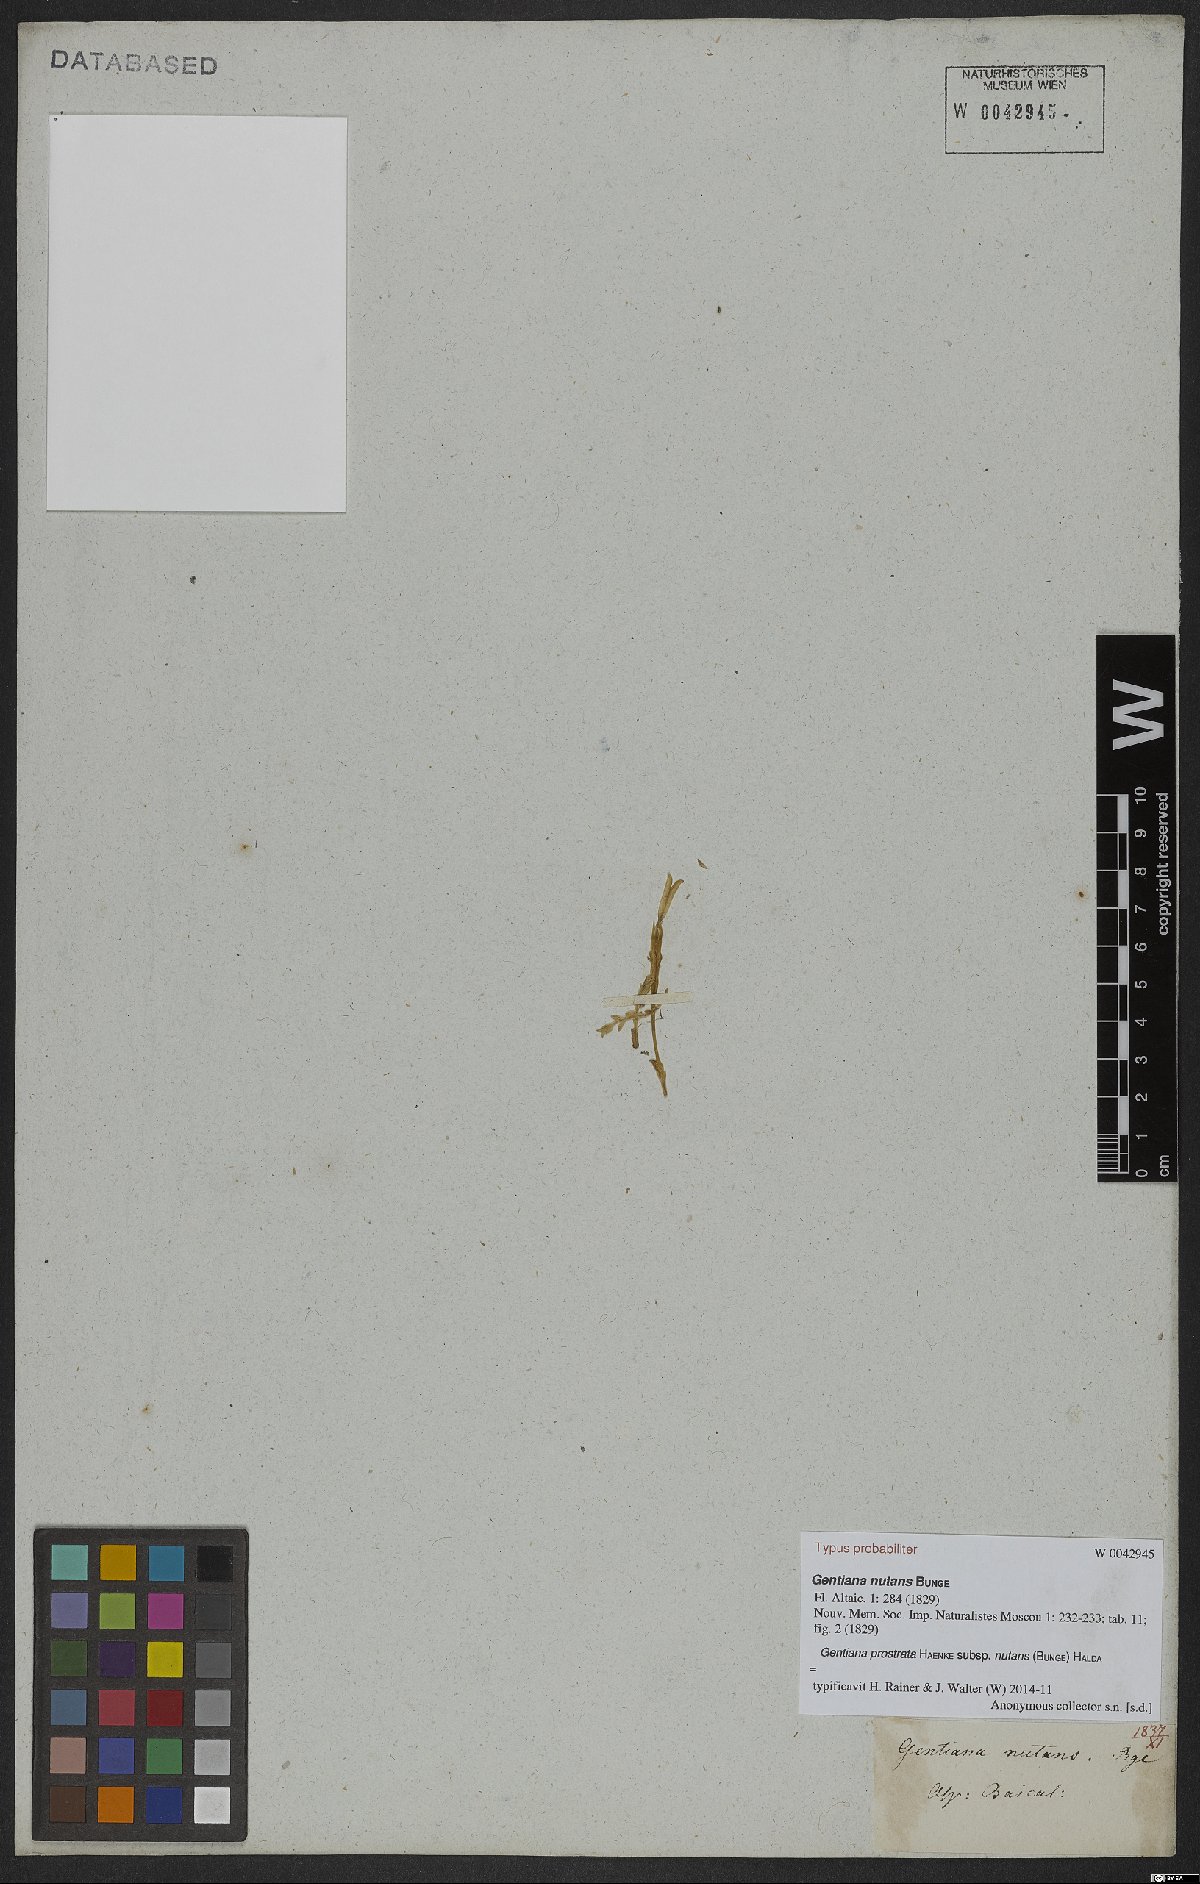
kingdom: Plantae
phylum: Tracheophyta
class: Magnoliopsida
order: Gentianales
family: Gentianaceae
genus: Gentiana
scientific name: Gentiana prostrata
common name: Moss gentian
